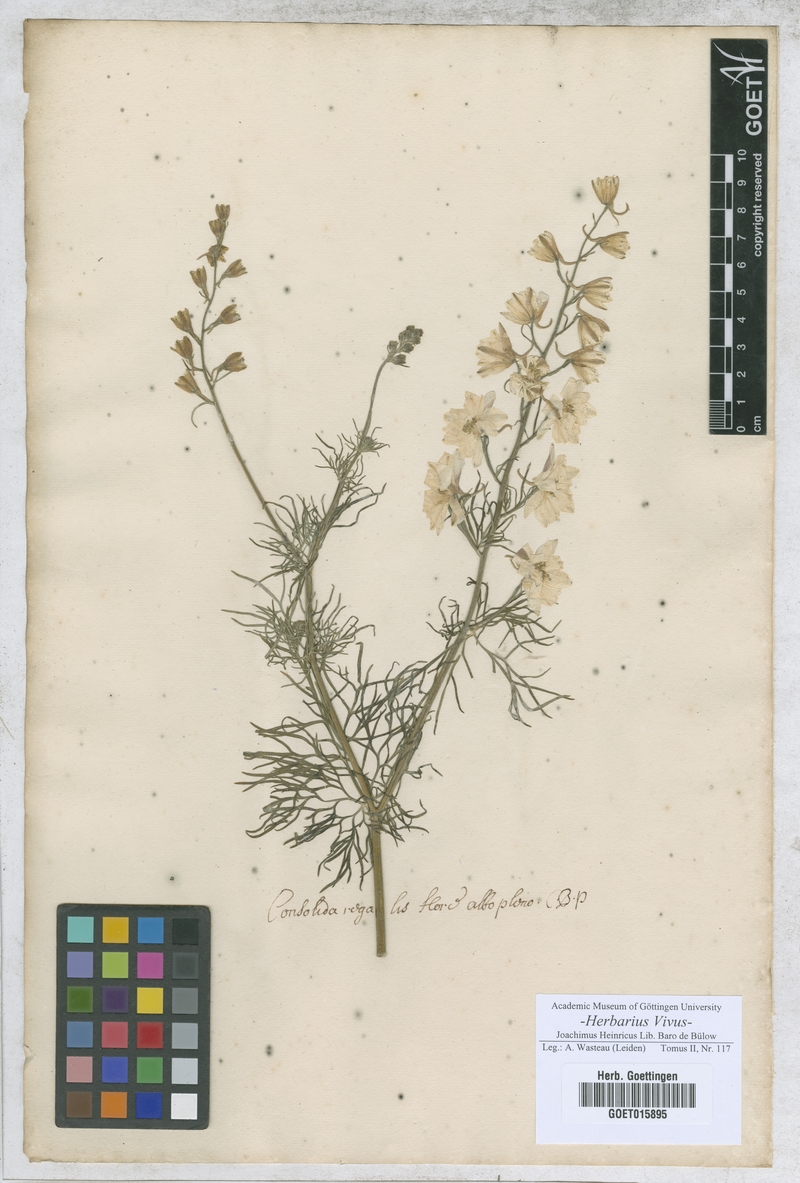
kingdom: Plantae
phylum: Tracheophyta
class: Magnoliopsida
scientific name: Magnoliopsida
